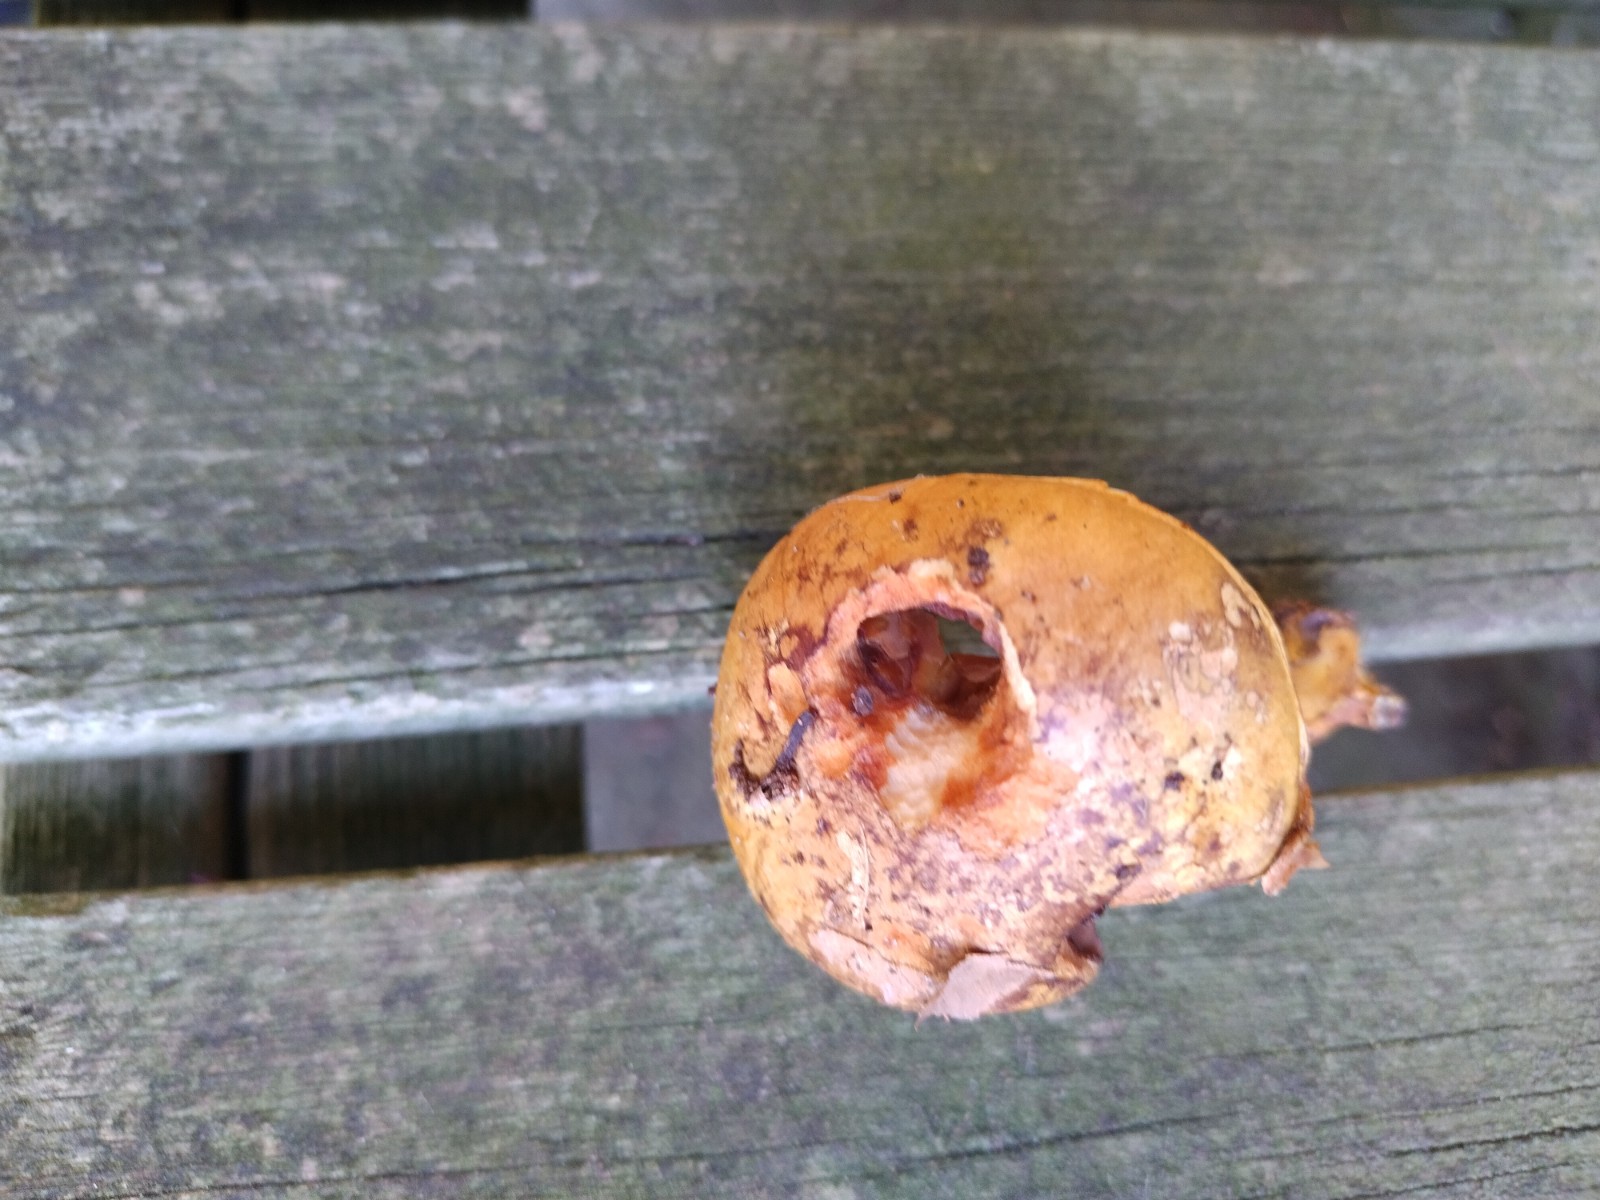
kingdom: Fungi
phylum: Basidiomycota
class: Agaricomycetes
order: Agaricales
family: Cortinariaceae
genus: Calonarius
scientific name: Calonarius alcalinophilus
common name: gyldenbrun slørhat
